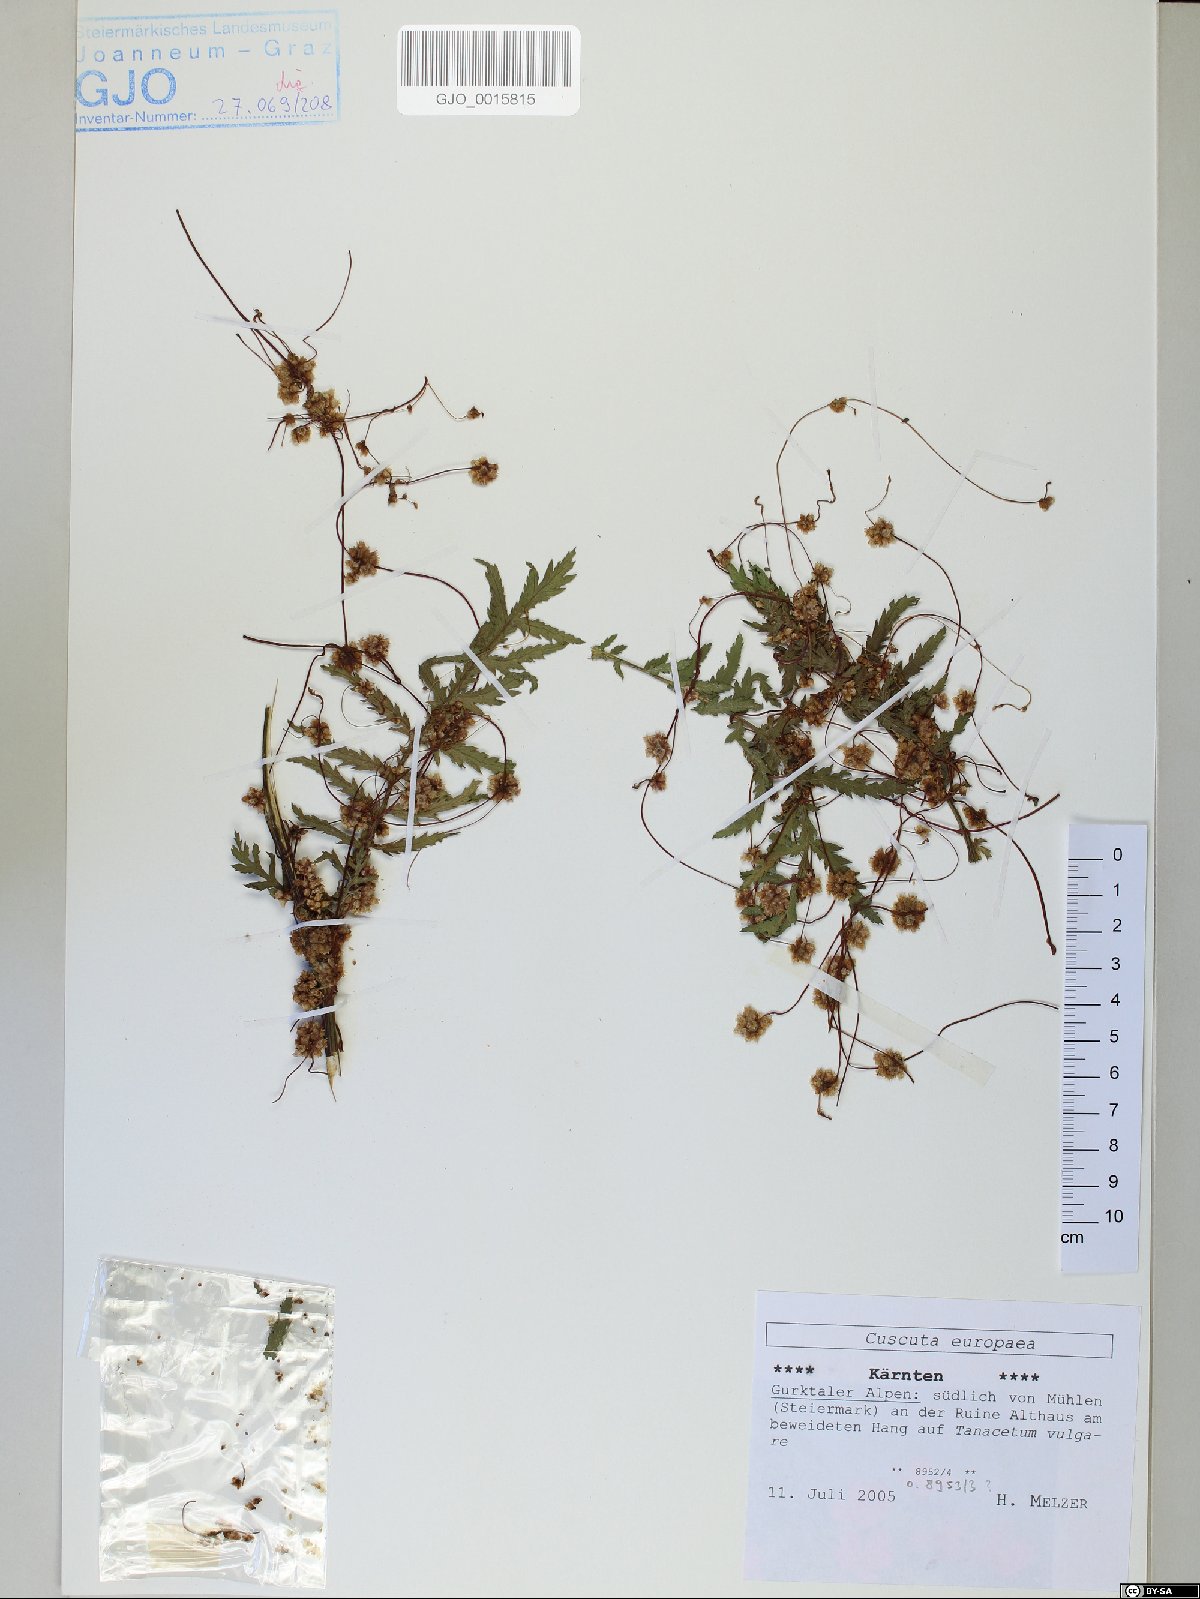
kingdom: Plantae
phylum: Tracheophyta
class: Magnoliopsida
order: Solanales
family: Convolvulaceae
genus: Cuscuta
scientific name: Cuscuta europaea
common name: Greater dodder
